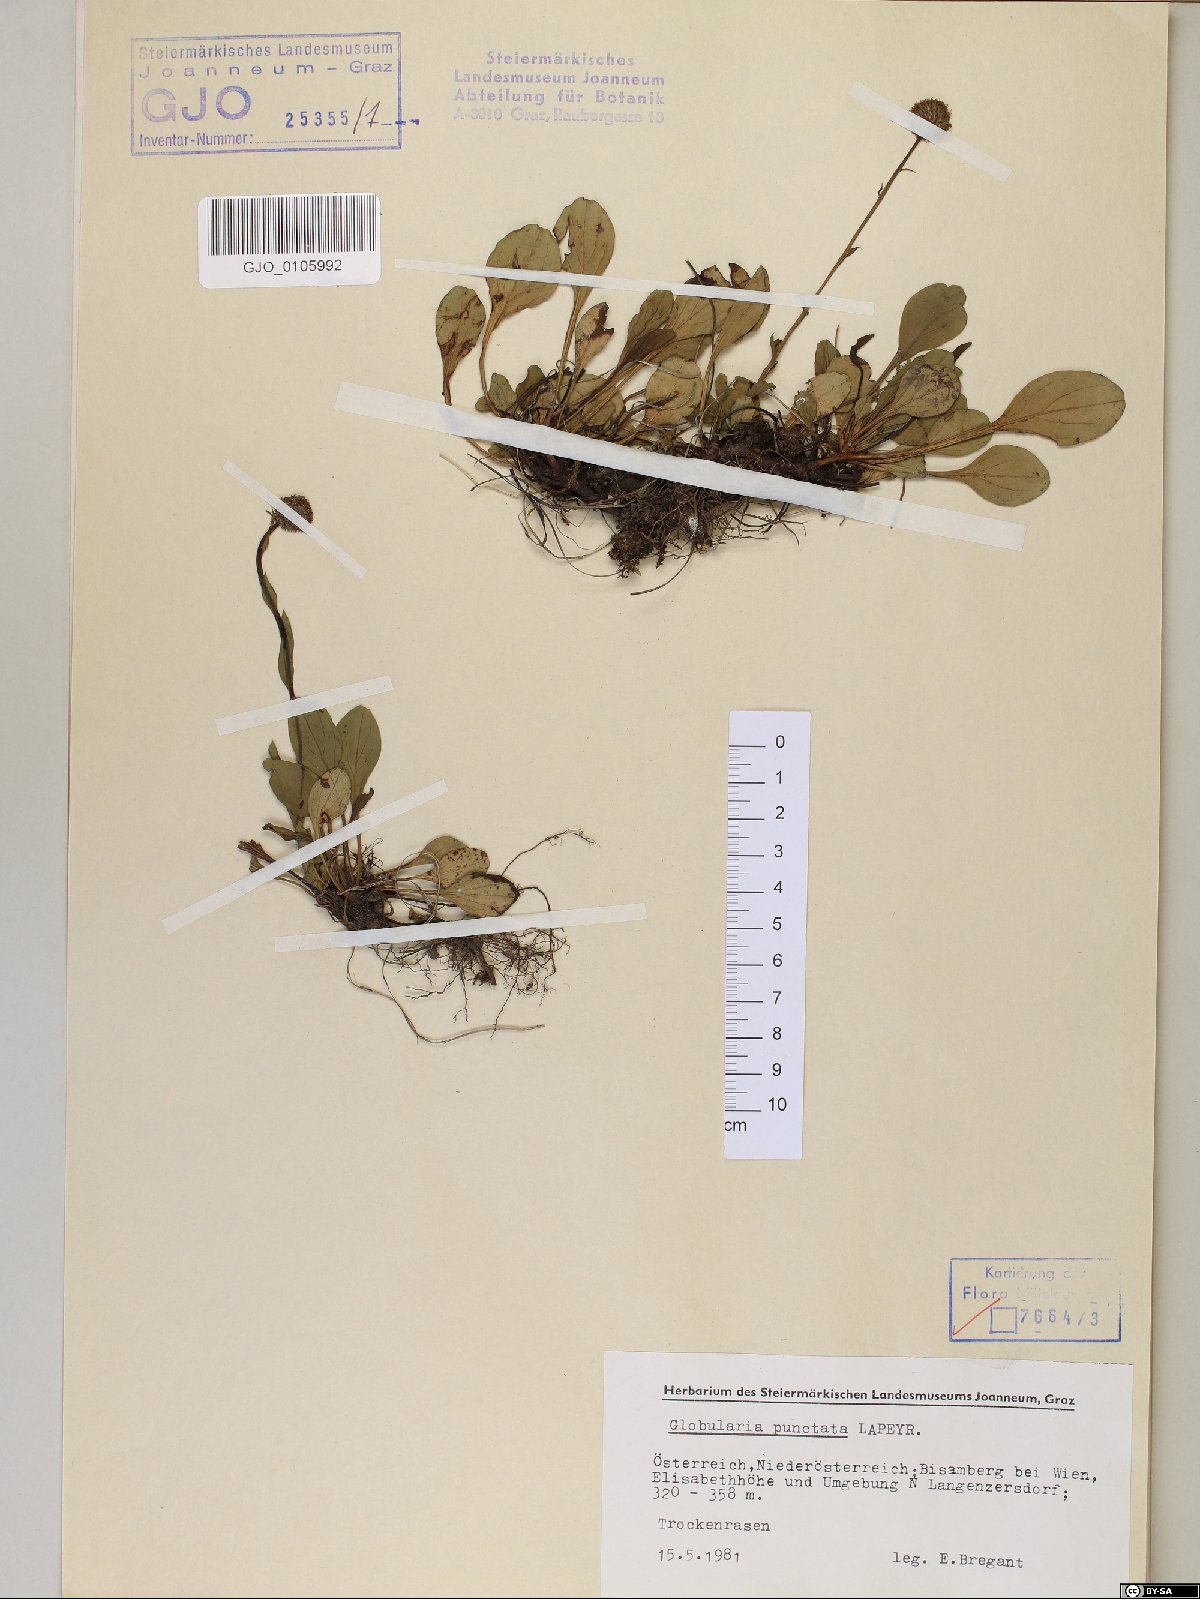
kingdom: Plantae
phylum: Tracheophyta
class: Magnoliopsida
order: Lamiales
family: Plantaginaceae
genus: Globularia
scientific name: Globularia bisnagarica
